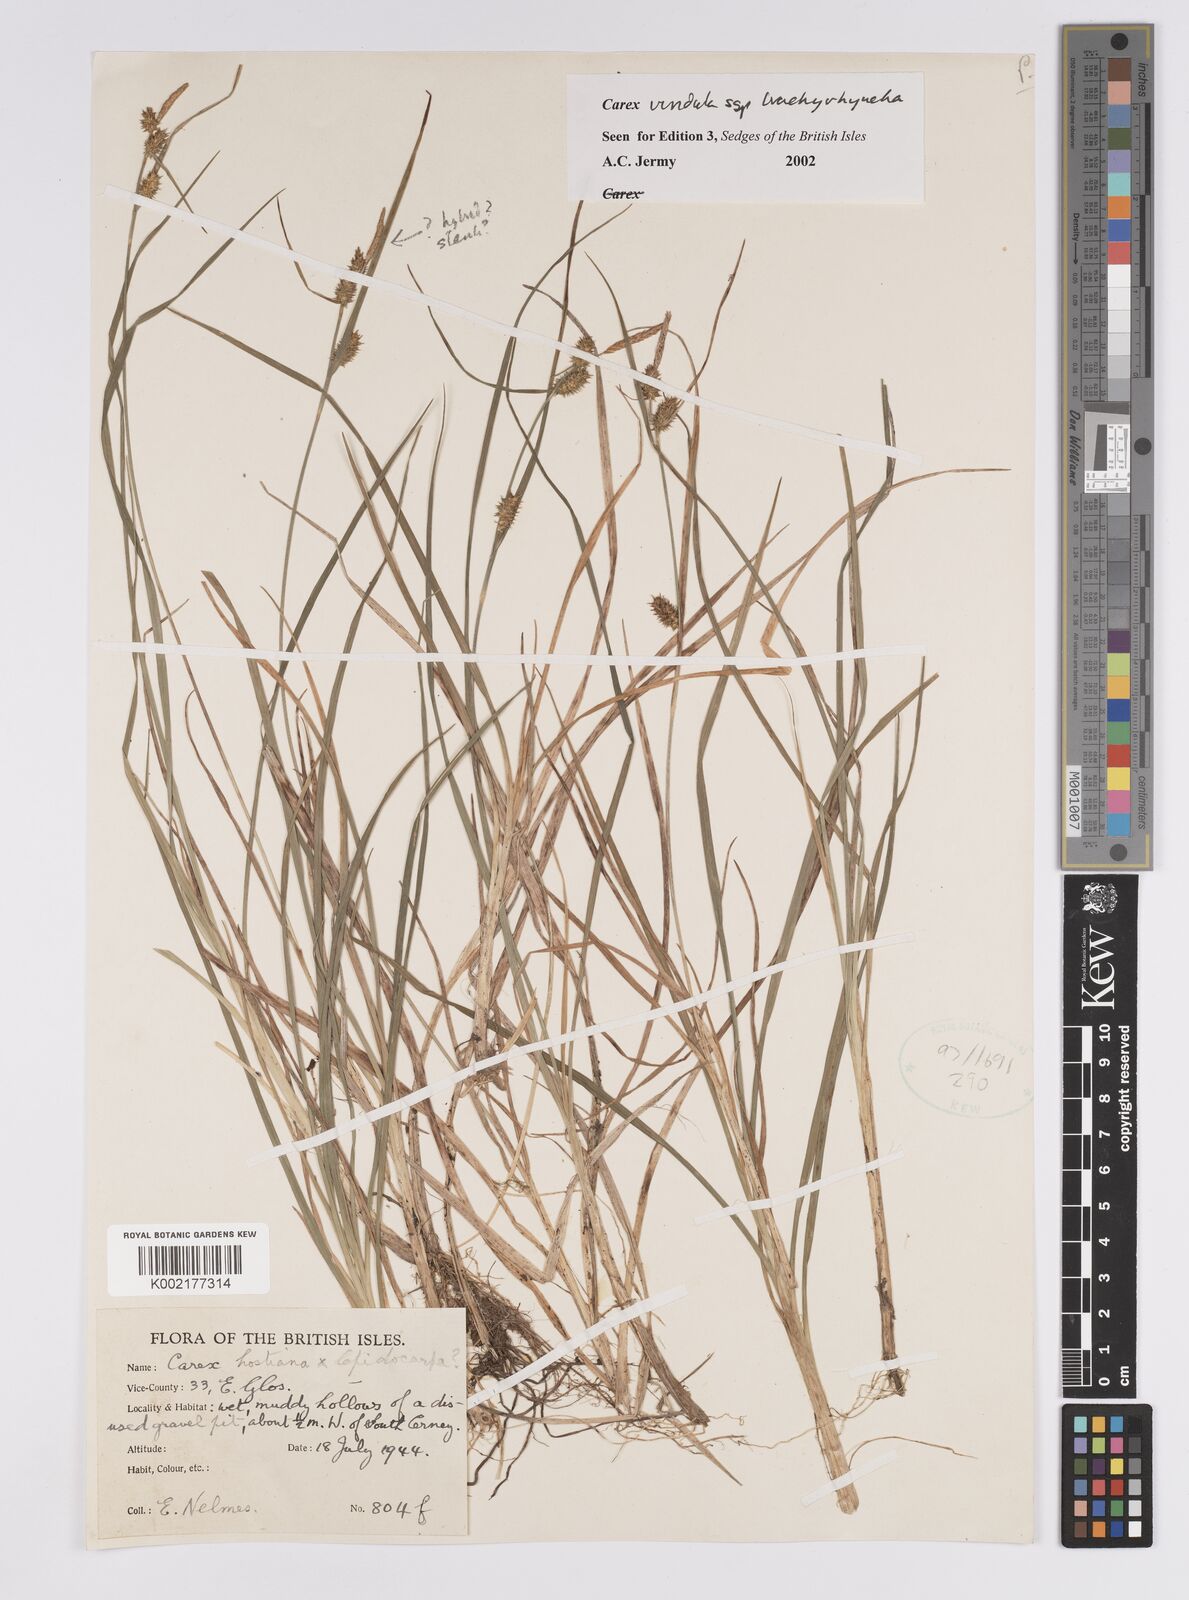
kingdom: Plantae
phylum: Tracheophyta
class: Liliopsida
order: Poales
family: Cyperaceae
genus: Carex
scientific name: Carex hostiana
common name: Tawny sedge
